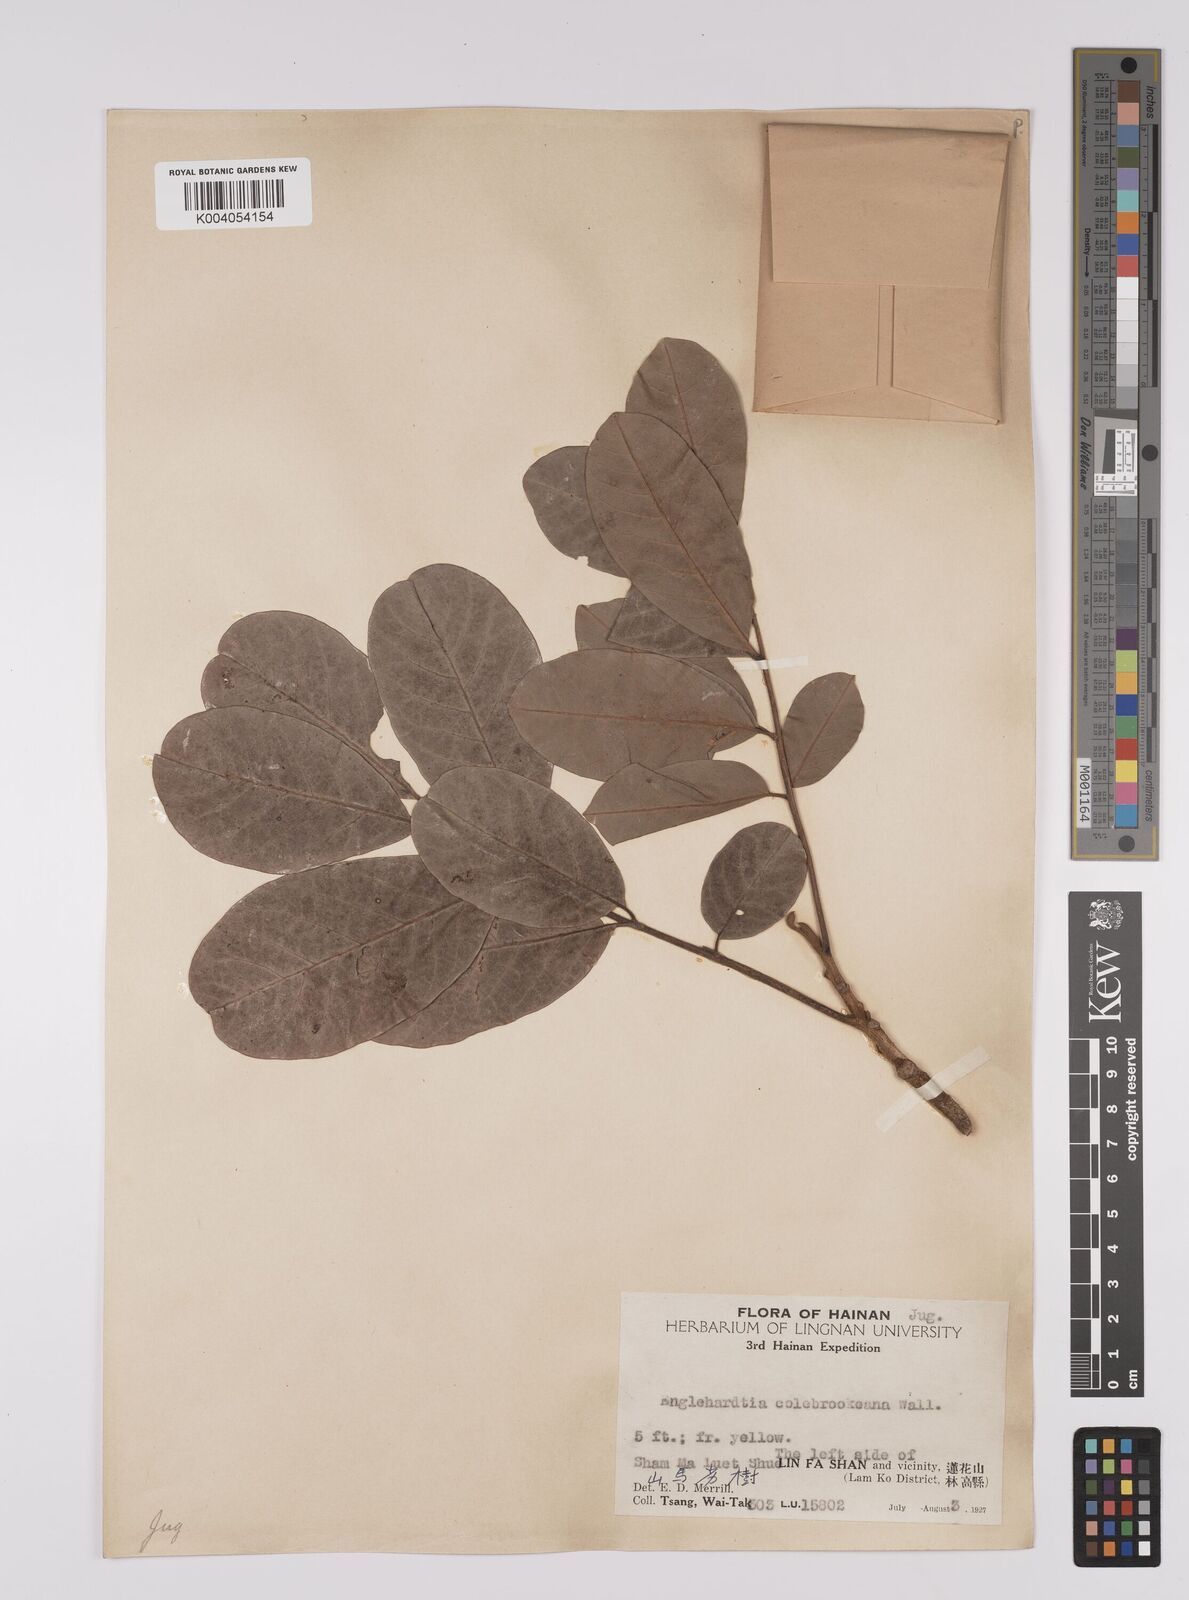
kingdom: Plantae
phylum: Tracheophyta
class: Magnoliopsida
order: Fagales
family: Juglandaceae
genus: Engelhardia
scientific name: Engelhardia spicata
